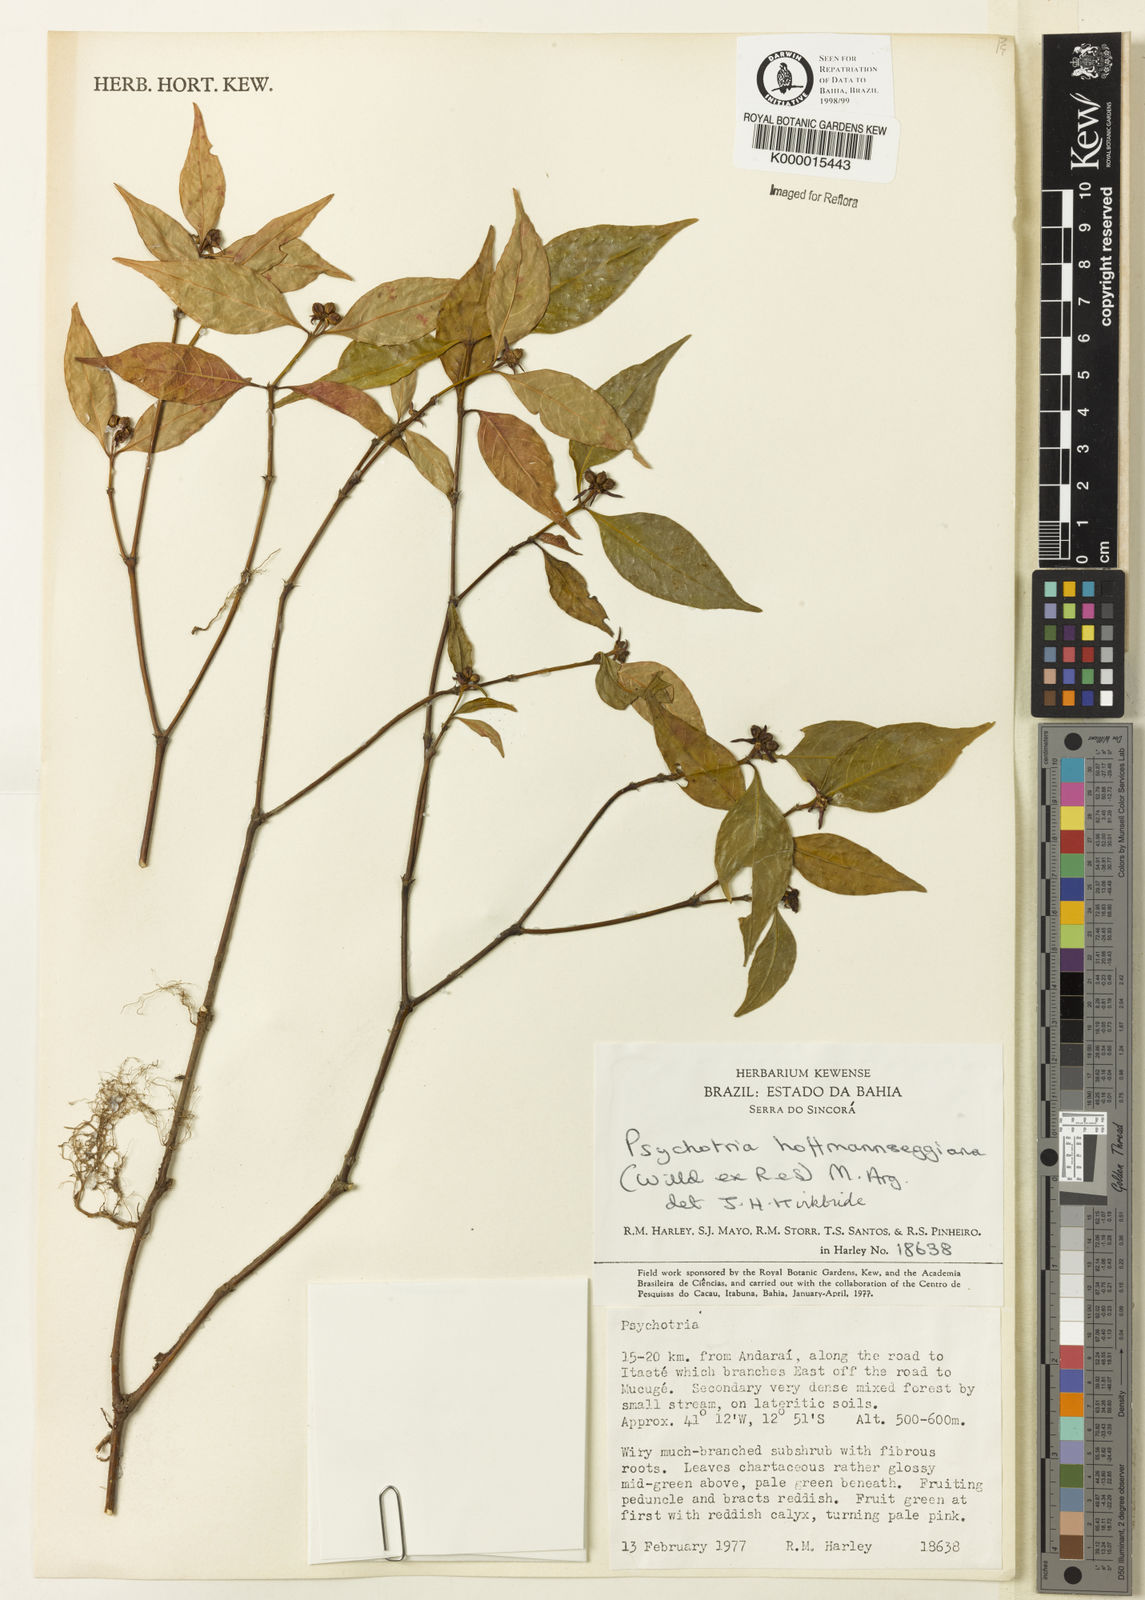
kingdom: Plantae
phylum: Tracheophyta
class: Magnoliopsida
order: Gentianales
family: Rubiaceae
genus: Psychotria
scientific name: Psychotria
